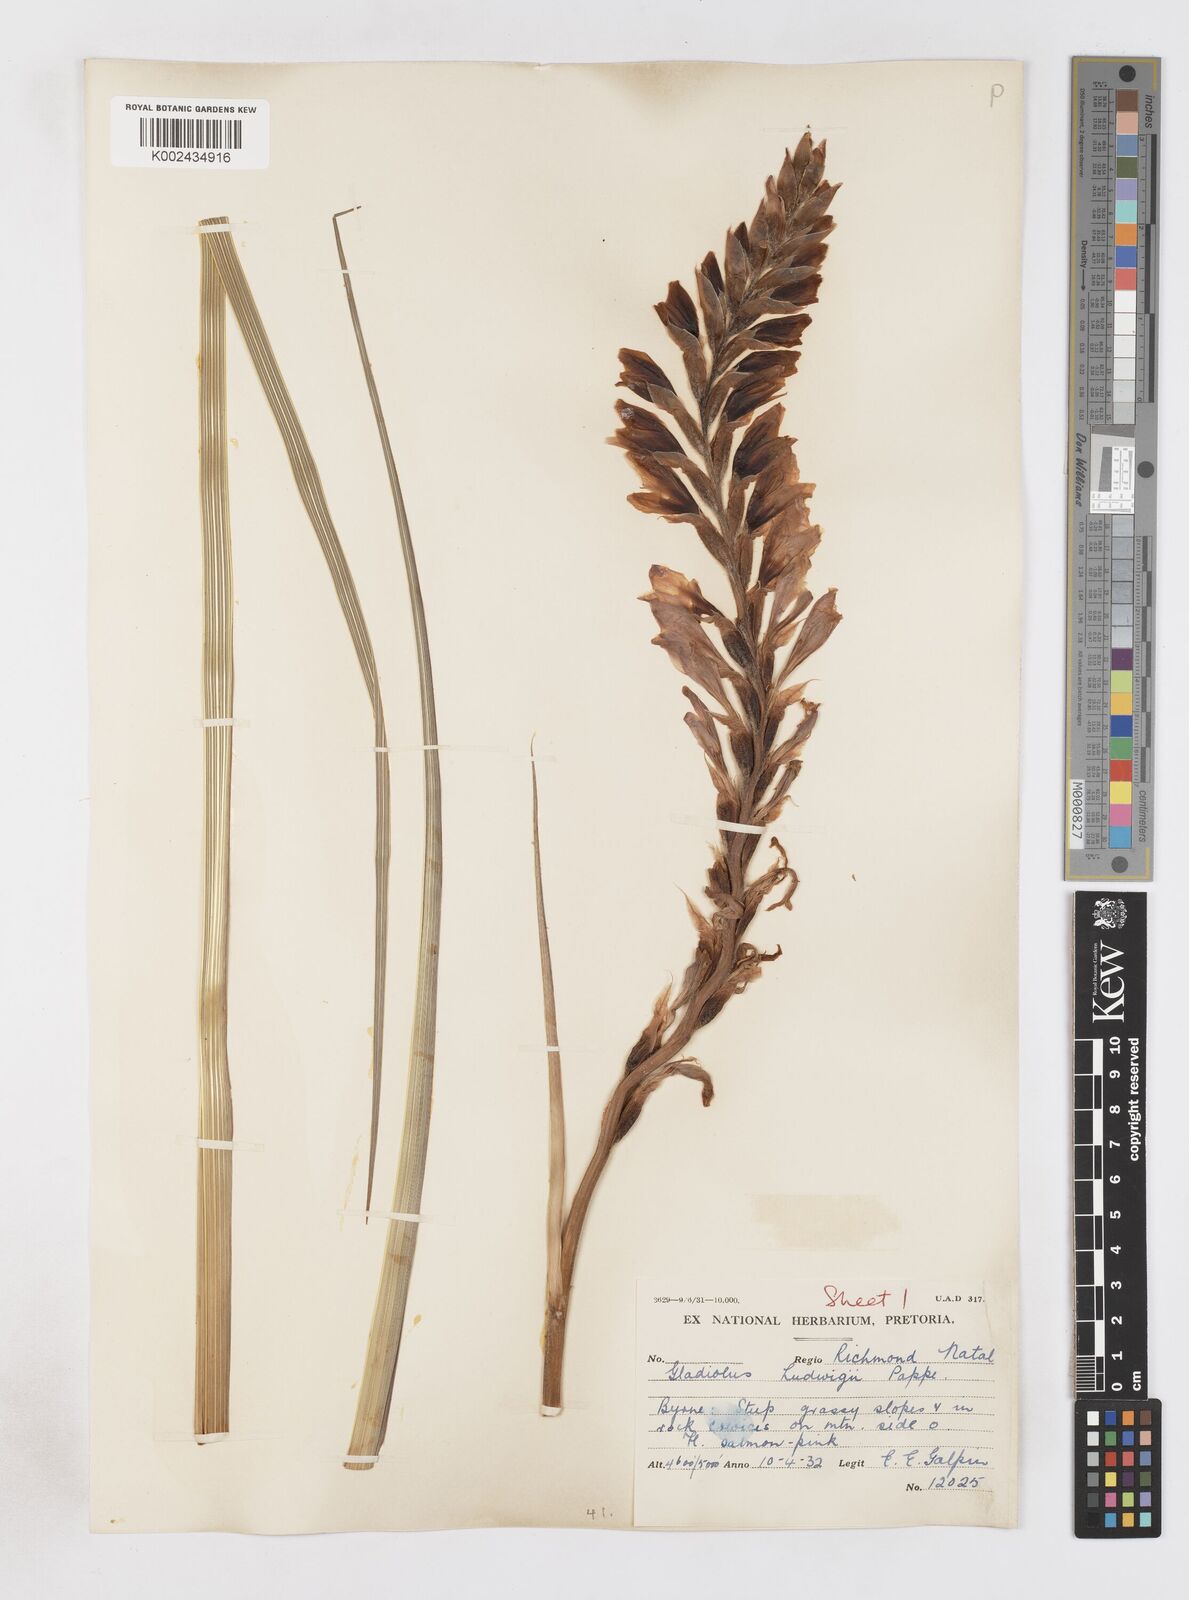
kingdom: Plantae
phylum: Tracheophyta
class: Liliopsida
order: Asparagales
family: Iridaceae
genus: Gladiolus
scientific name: Gladiolus sericeovillosus
